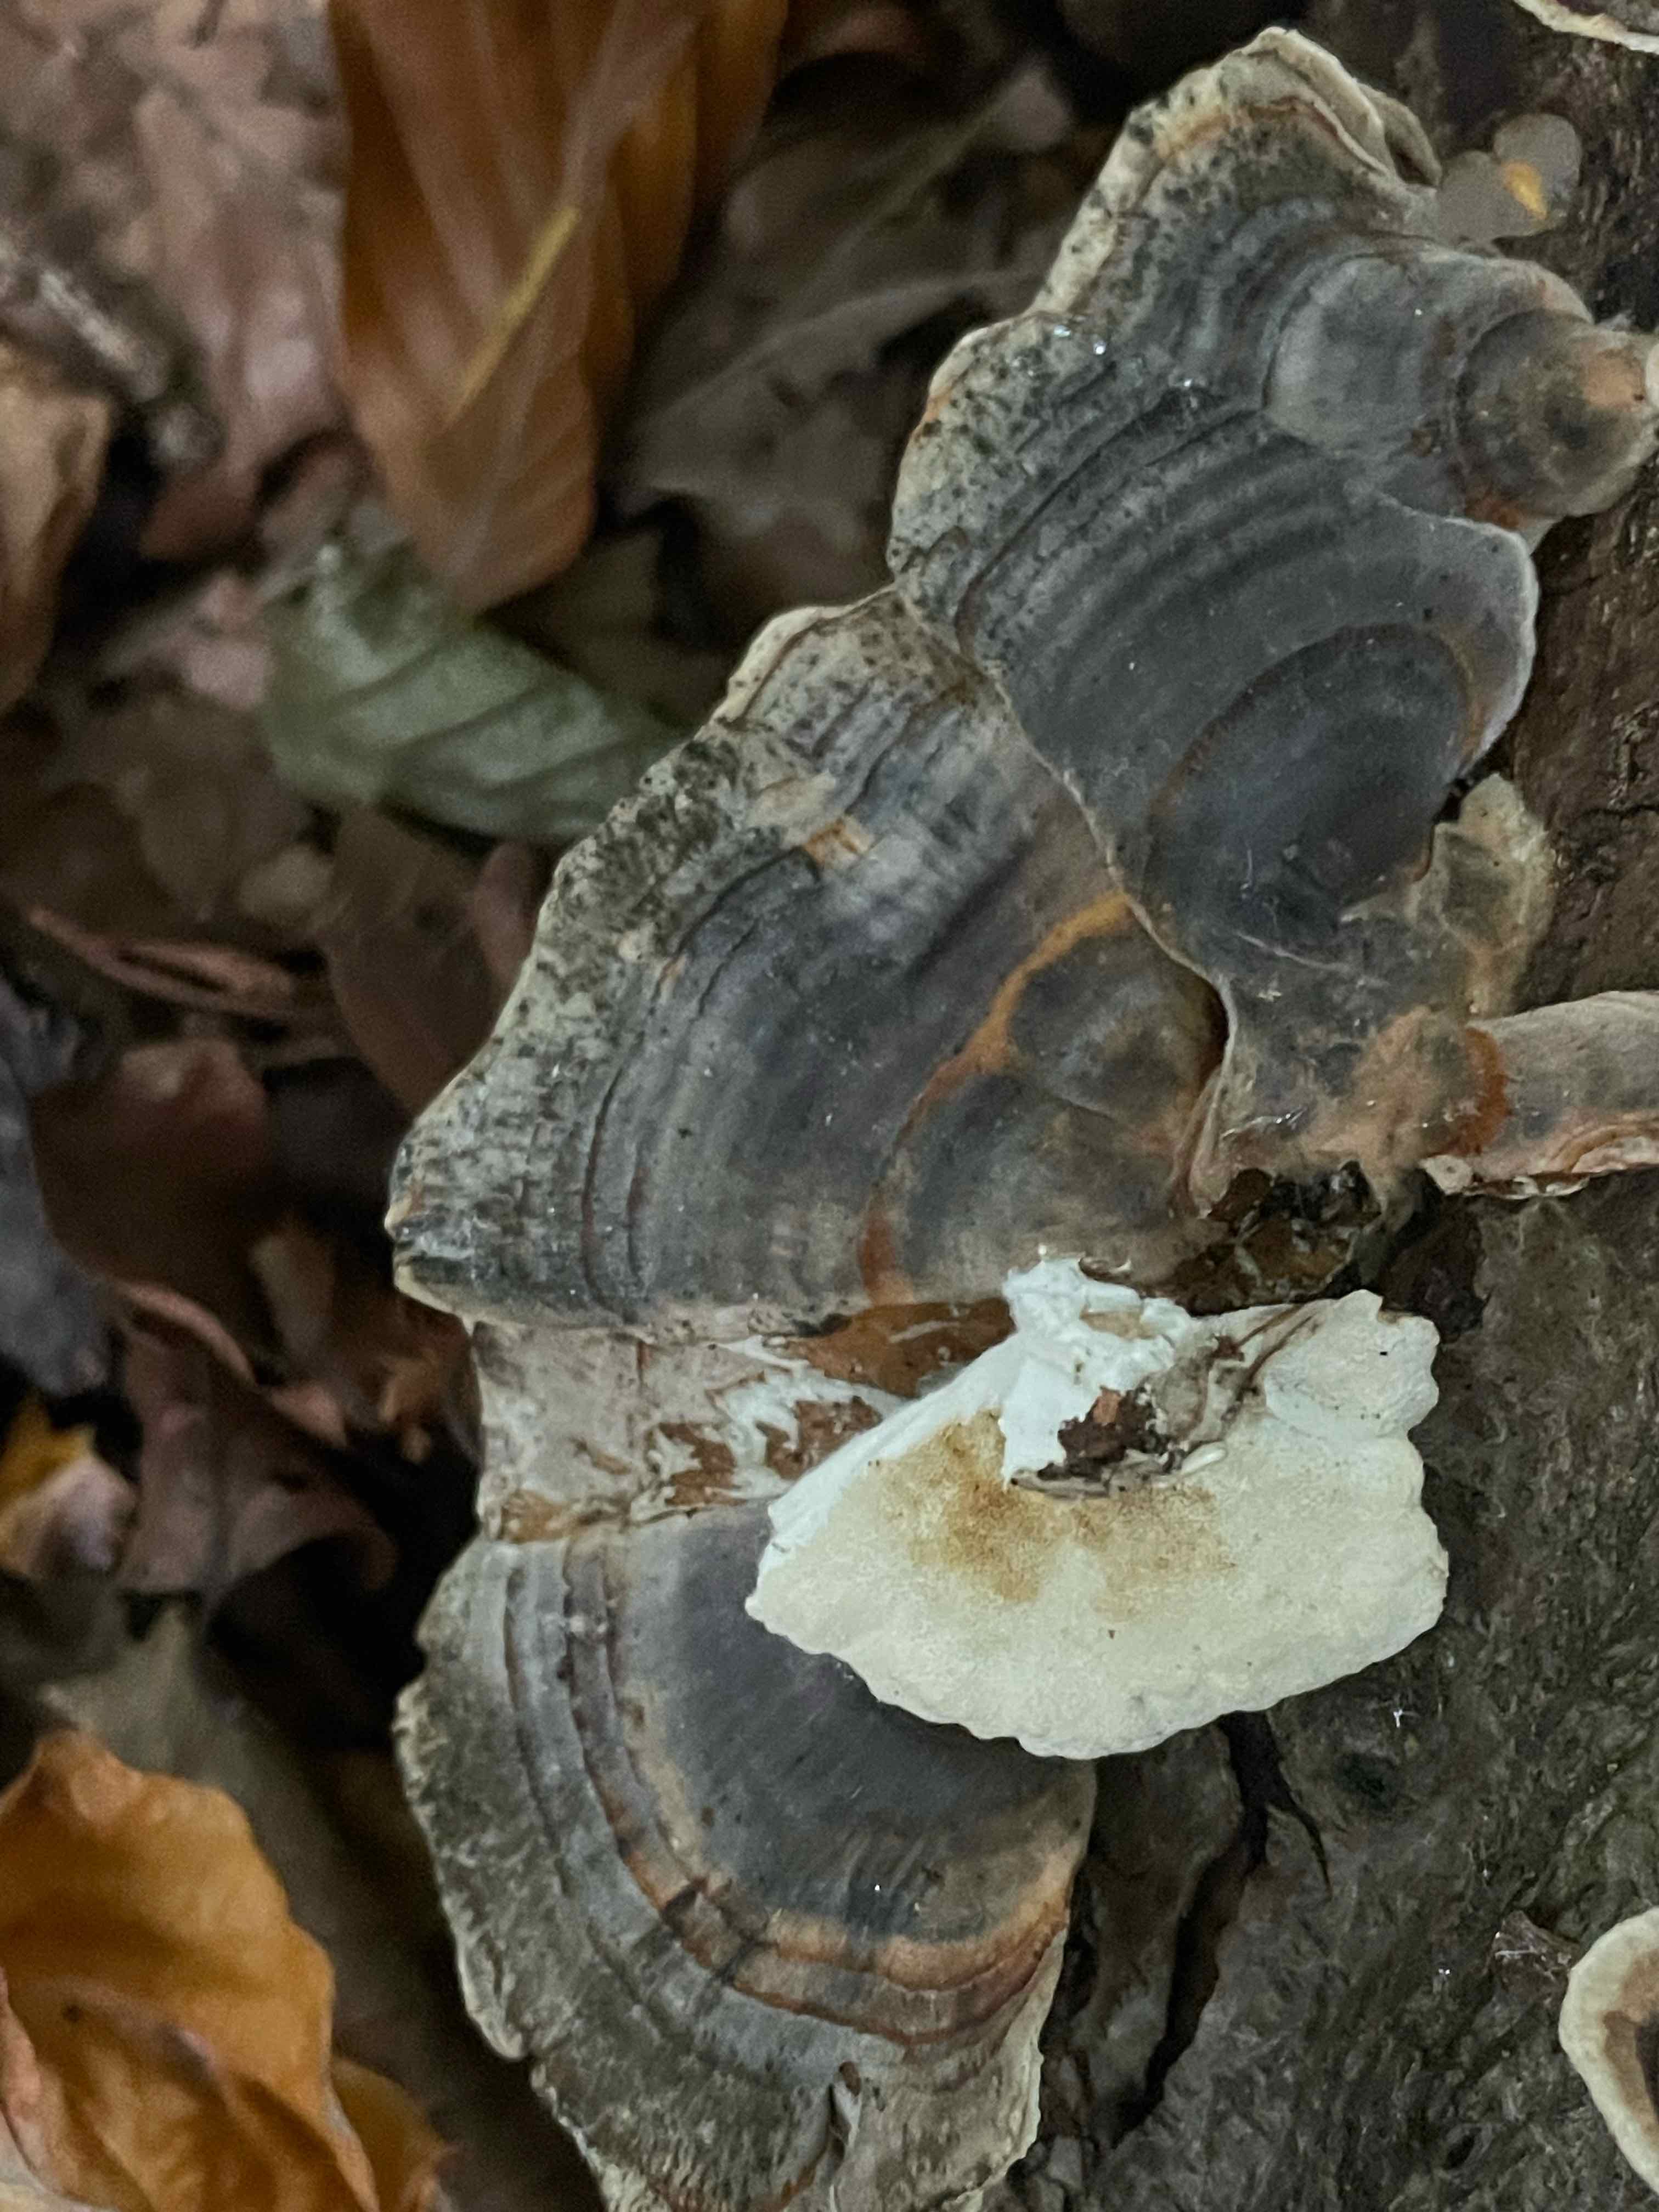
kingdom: Fungi
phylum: Basidiomycota
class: Agaricomycetes
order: Polyporales
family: Polyporaceae
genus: Trametes
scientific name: Trametes versicolor
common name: broget læderporesvamp
